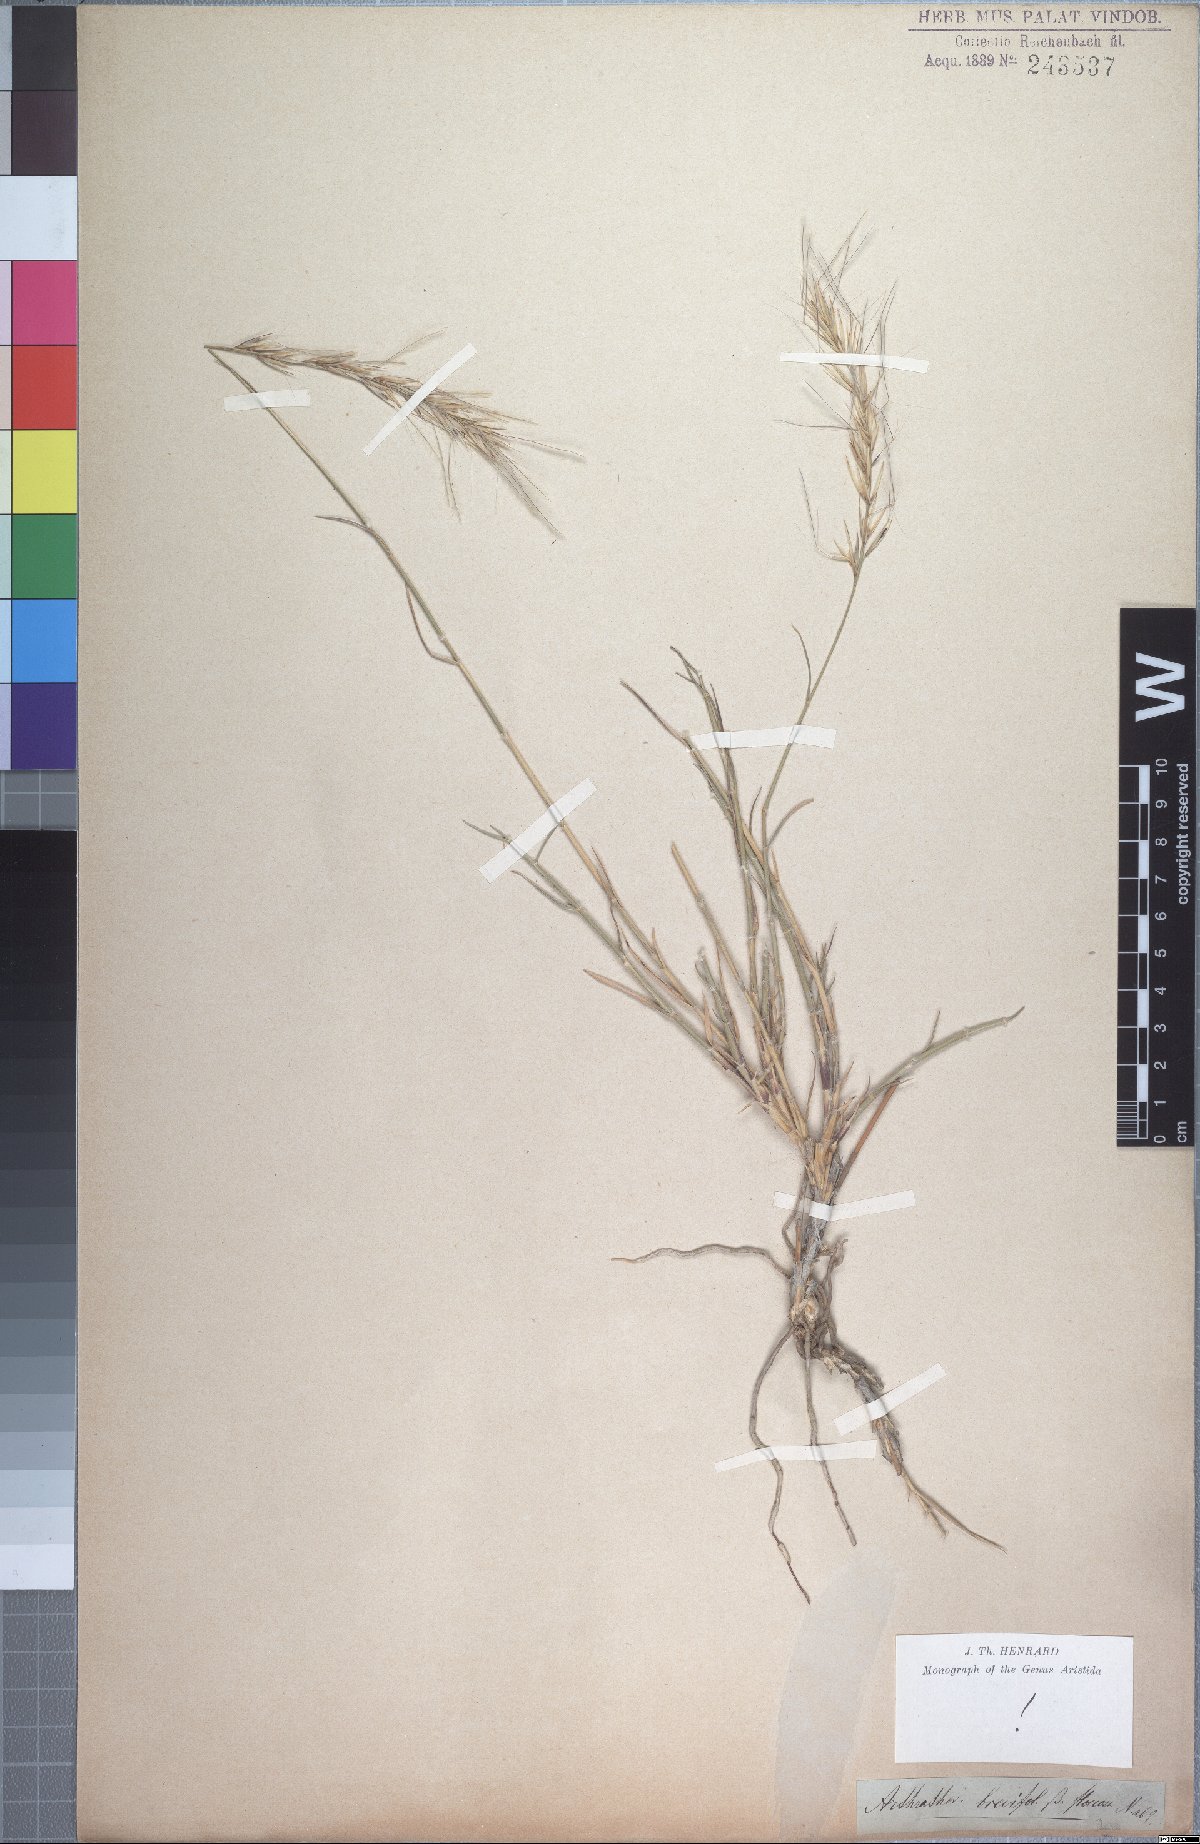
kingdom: Plantae
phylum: Tracheophyta
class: Liliopsida
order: Poales
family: Poaceae
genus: Stipagrostis
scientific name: Stipagrostis brevifolia
